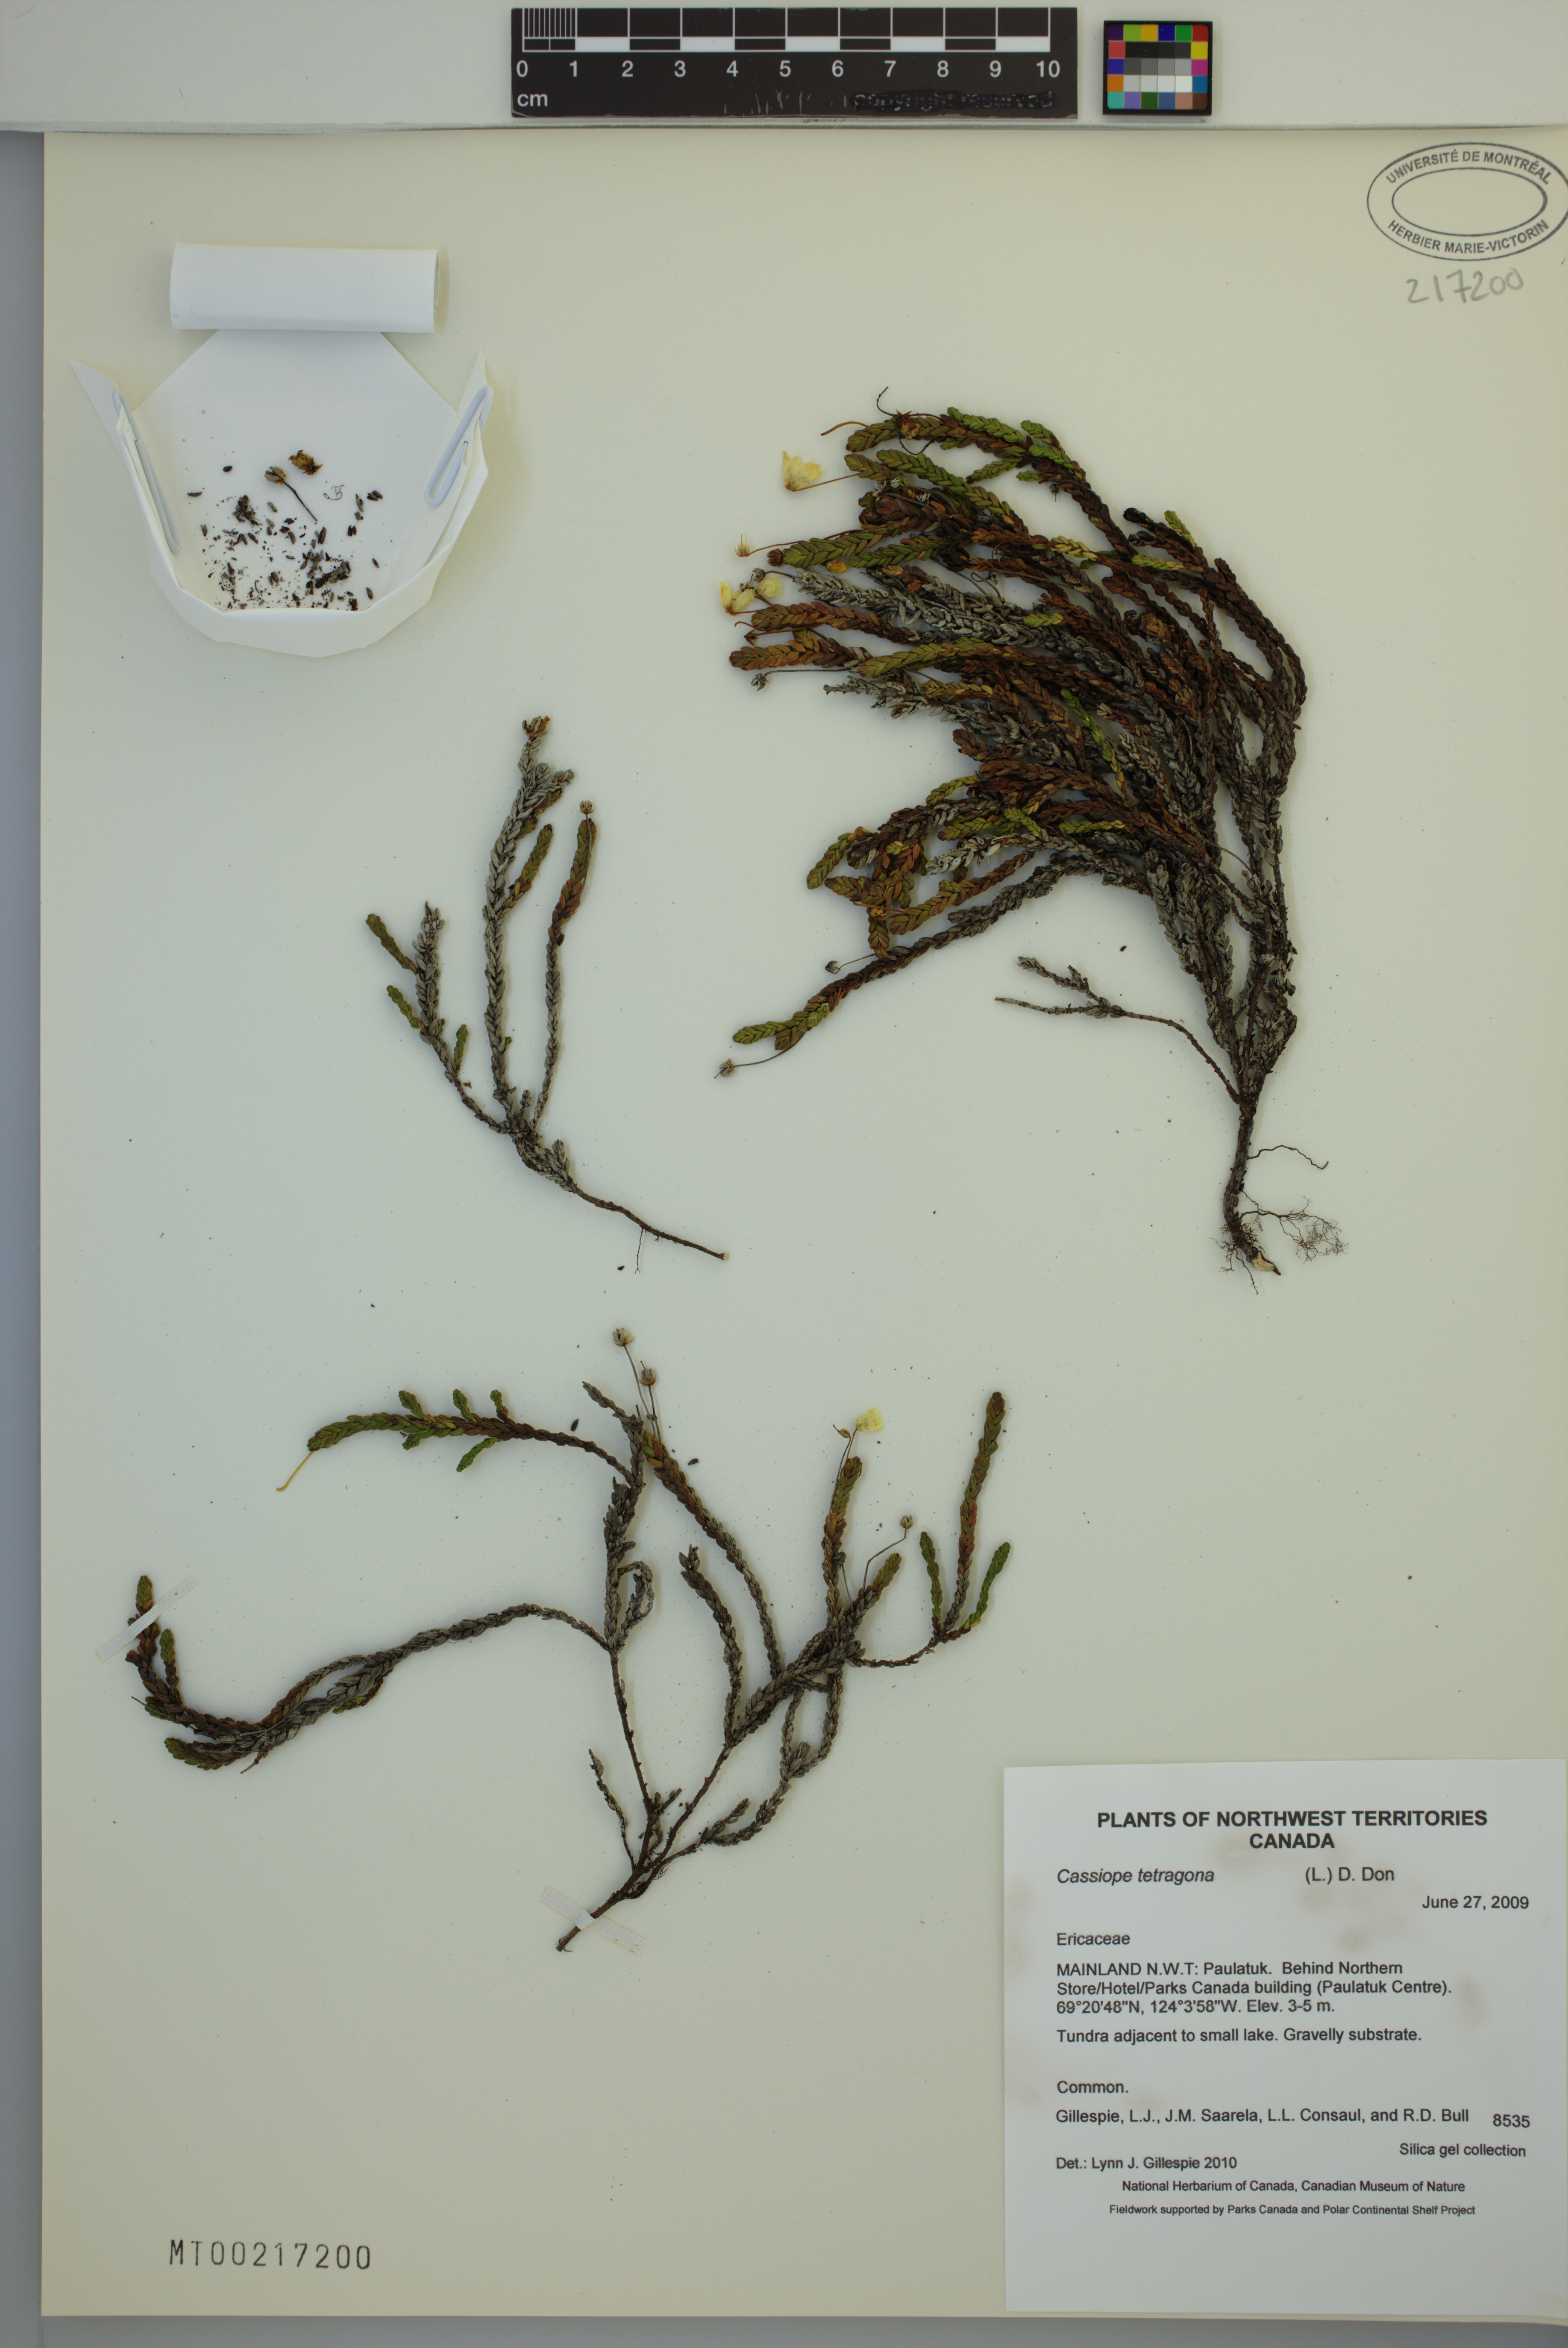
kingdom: Plantae
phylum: Tracheophyta
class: Magnoliopsida
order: Ericales
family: Ericaceae
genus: Cassiope
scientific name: Cassiope tetragona
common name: Arctic bell heather
